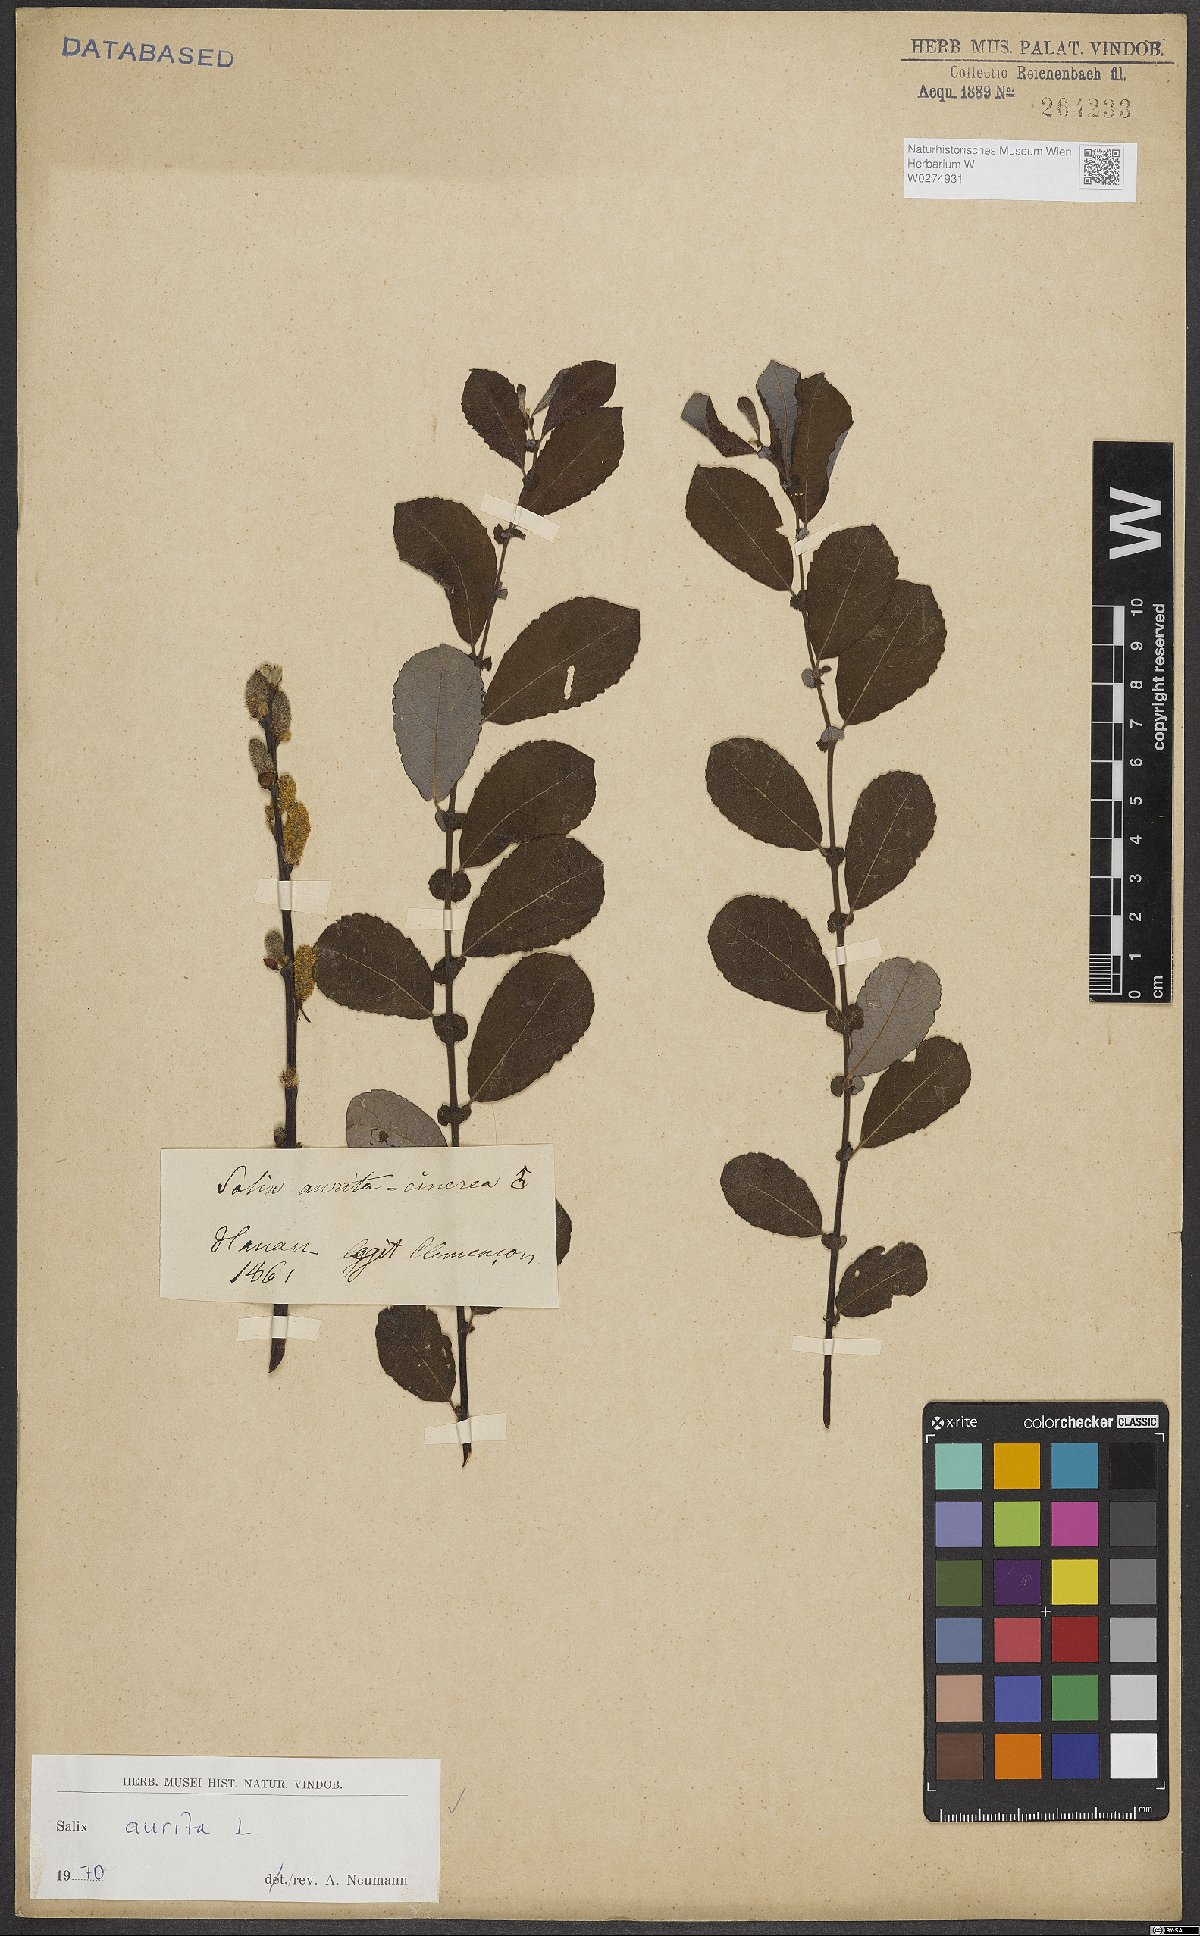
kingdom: Plantae
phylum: Tracheophyta
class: Magnoliopsida
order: Malpighiales
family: Salicaceae
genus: Salix
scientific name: Salix aurita
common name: Eared willow
